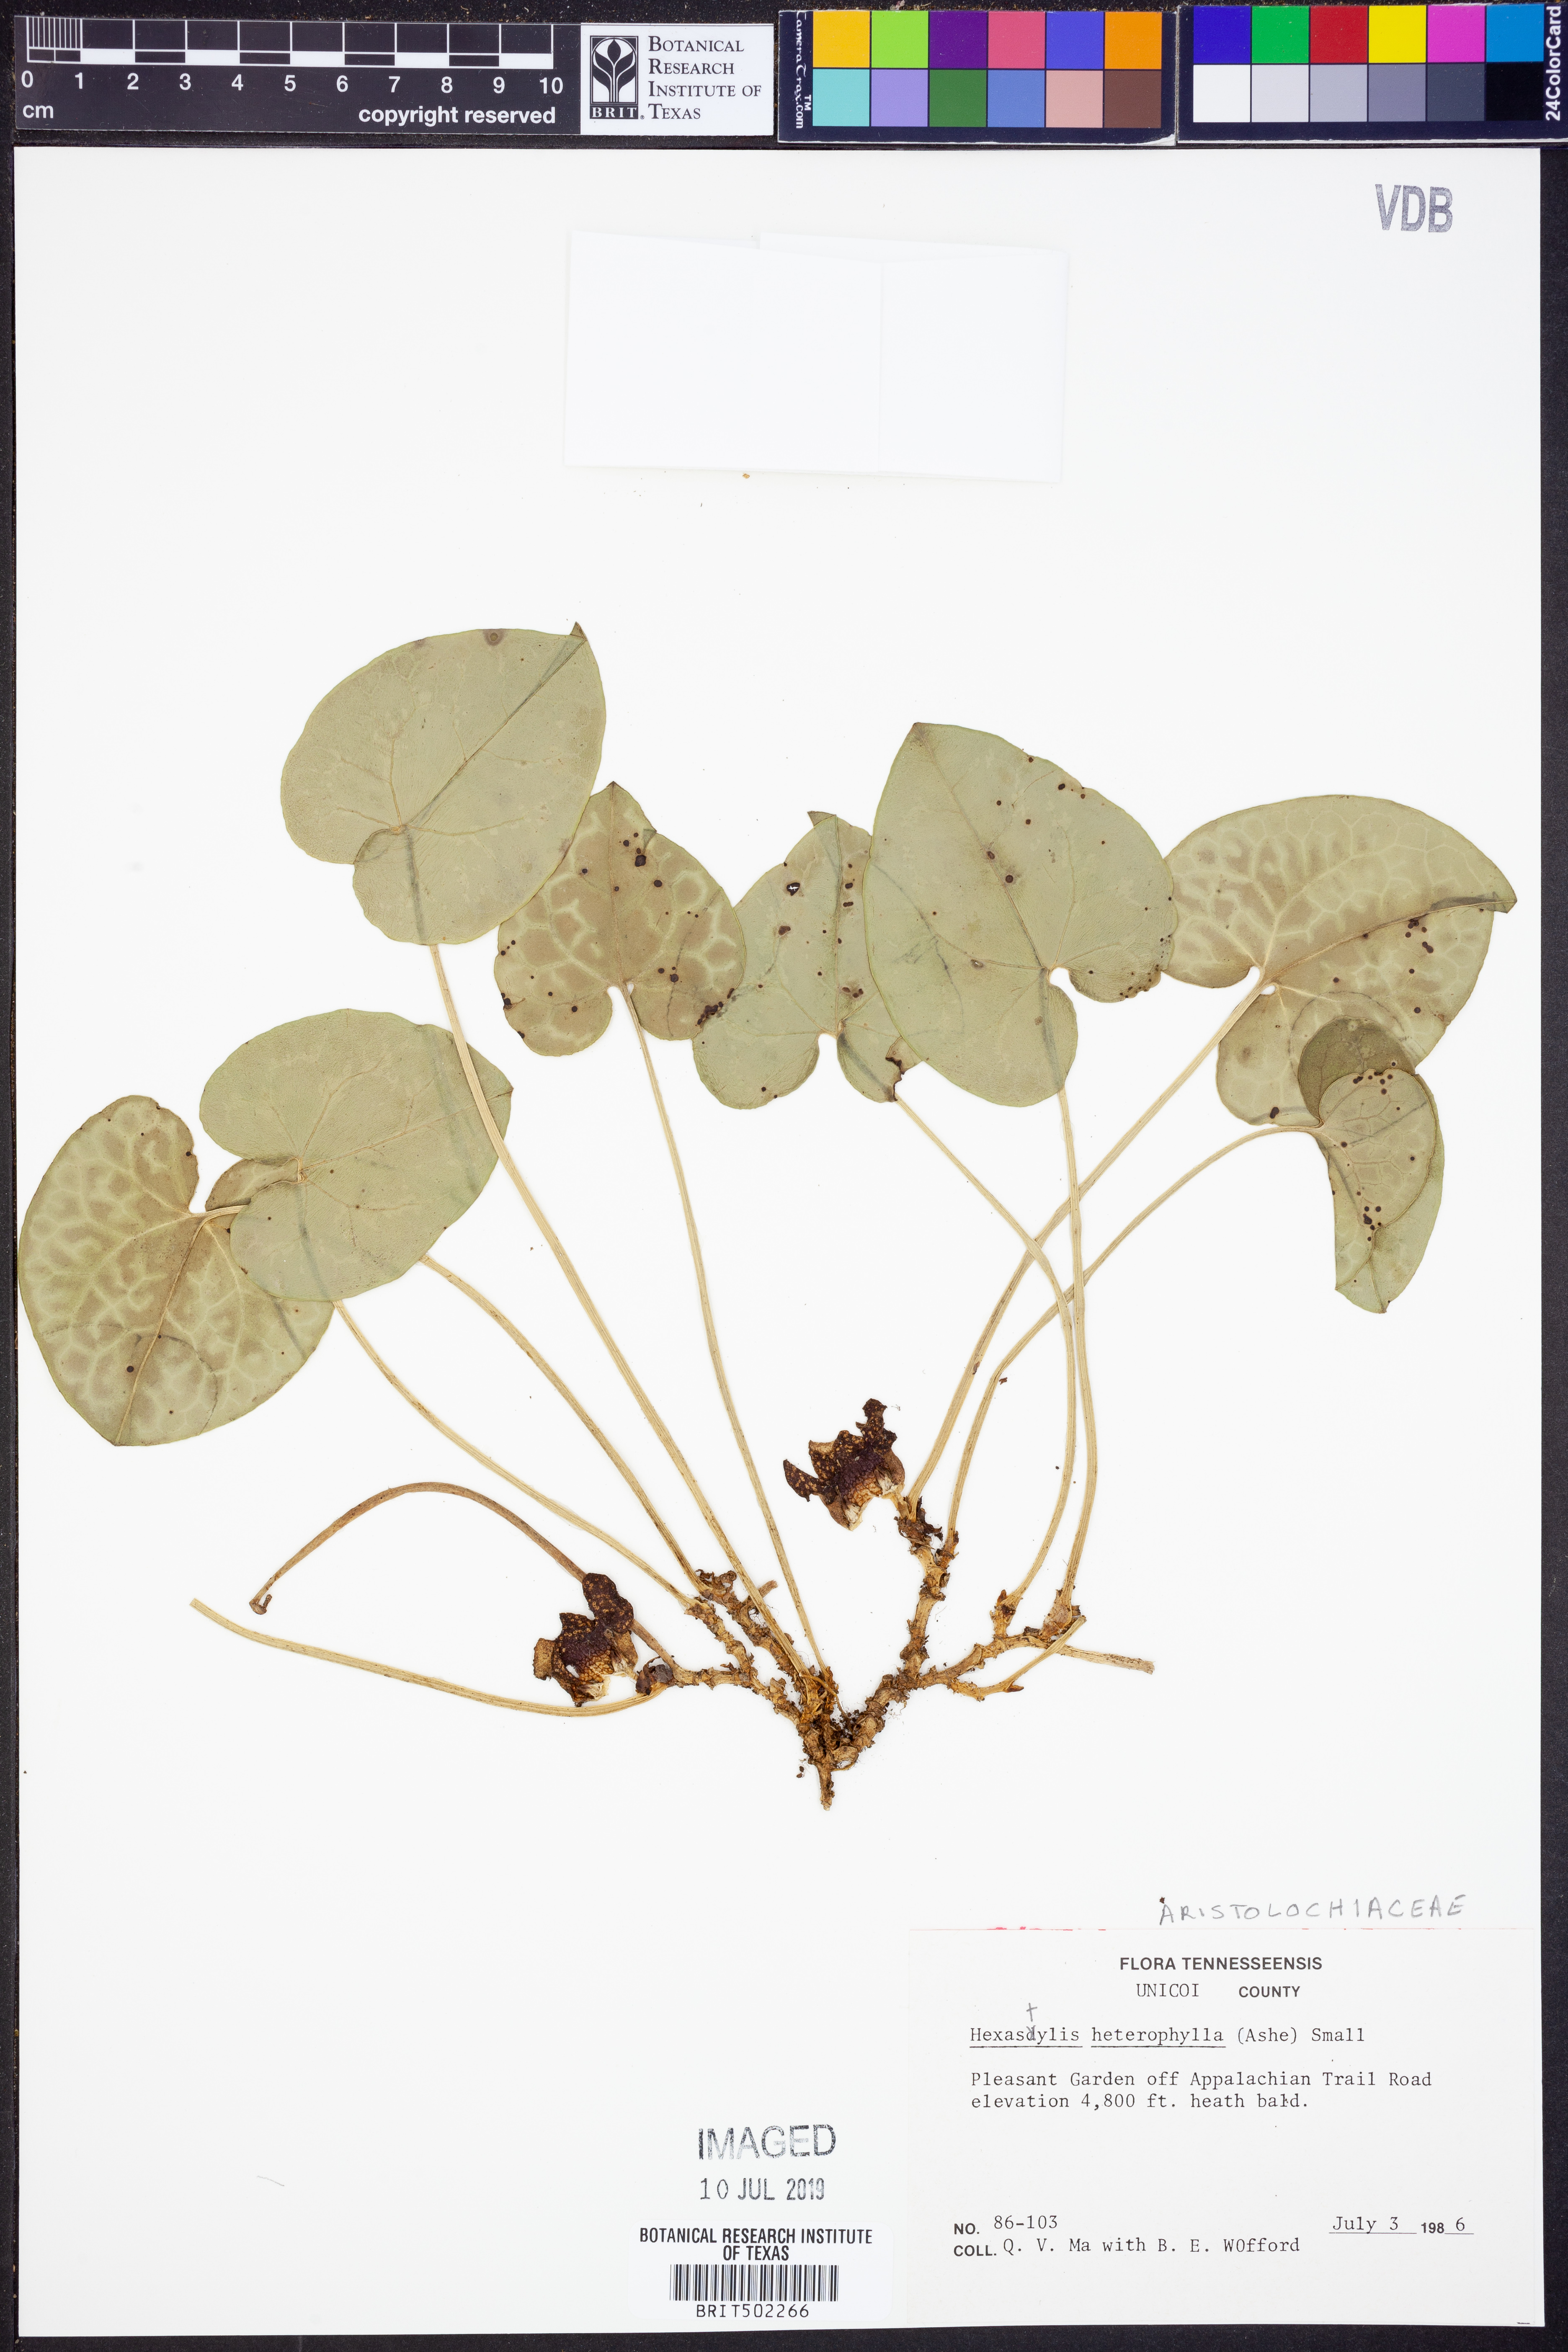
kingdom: Plantae
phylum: Tracheophyta
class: Magnoliopsida
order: Piperales
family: Aristolochiaceae
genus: Hexastylis
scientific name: Hexastylis heterophylla
